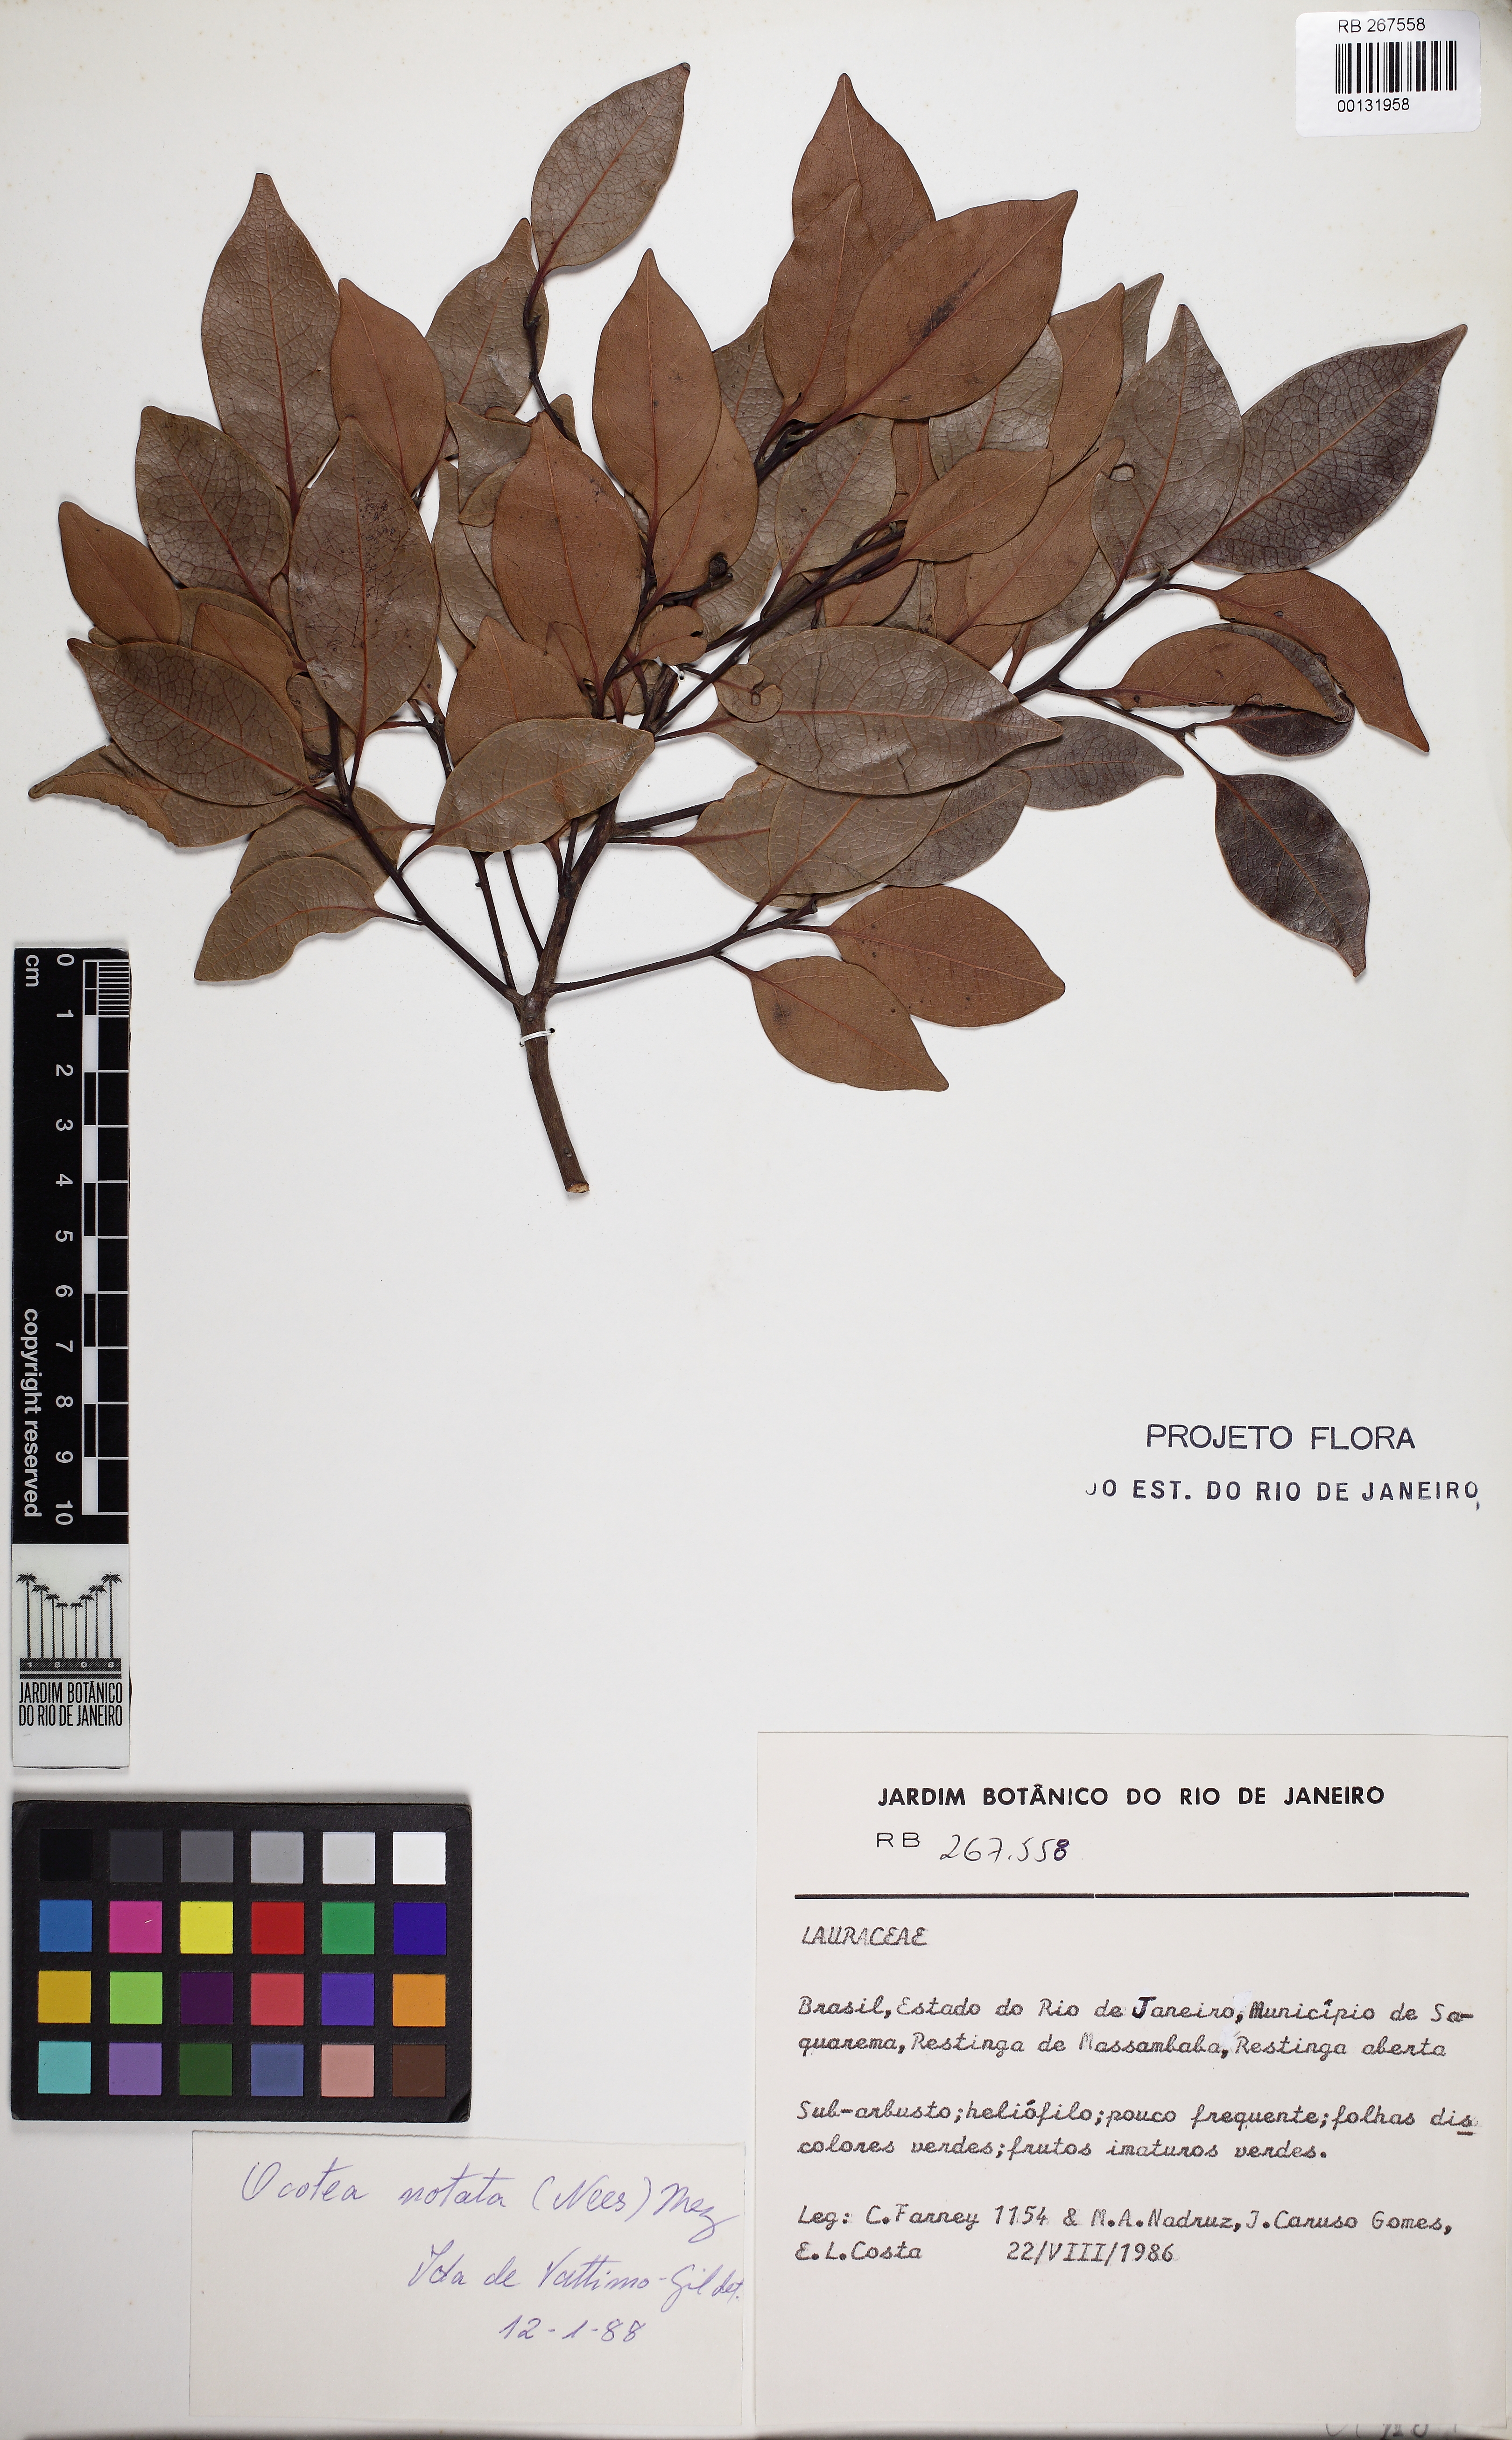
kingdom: Plantae
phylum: Tracheophyta
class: Magnoliopsida
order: Laurales
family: Lauraceae
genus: Mespilodaphne
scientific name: Mespilodaphne notata
